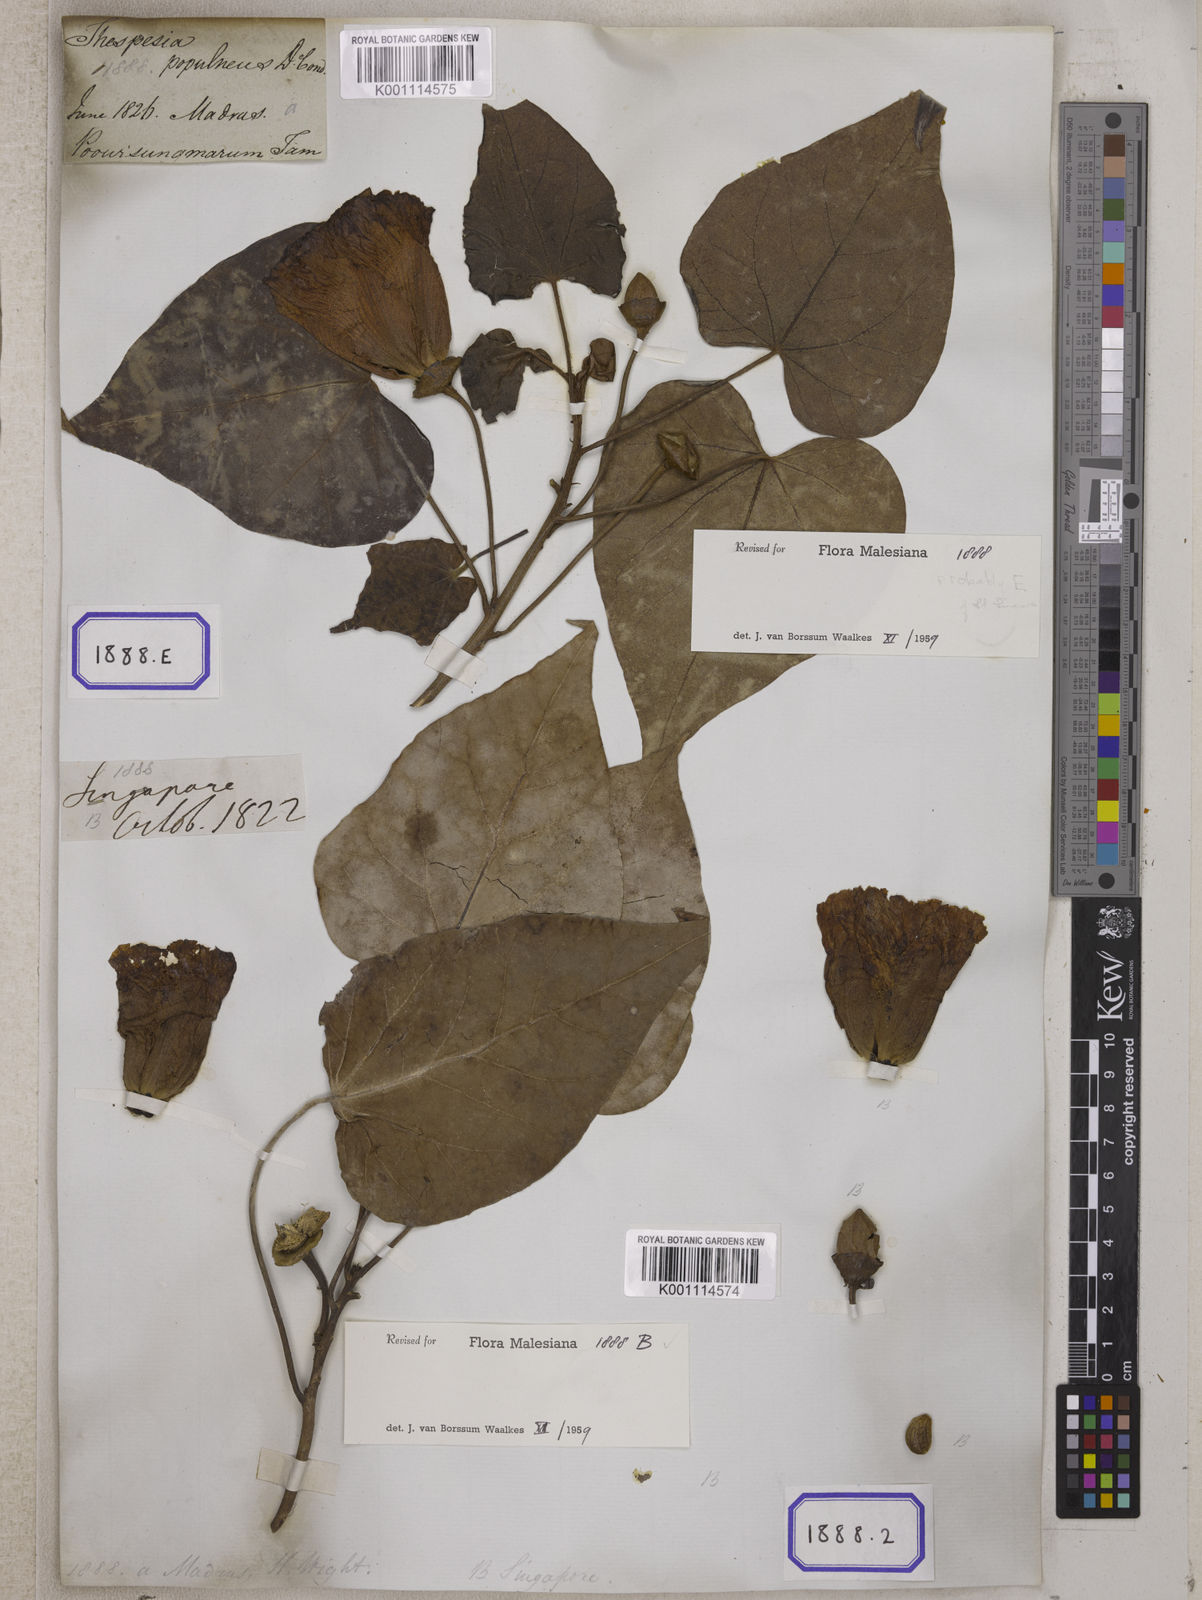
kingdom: Plantae
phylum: Tracheophyta
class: Magnoliopsida
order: Malvales
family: Malvaceae
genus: Thespesia
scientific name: Thespesia populnea
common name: Seaside mahoe
